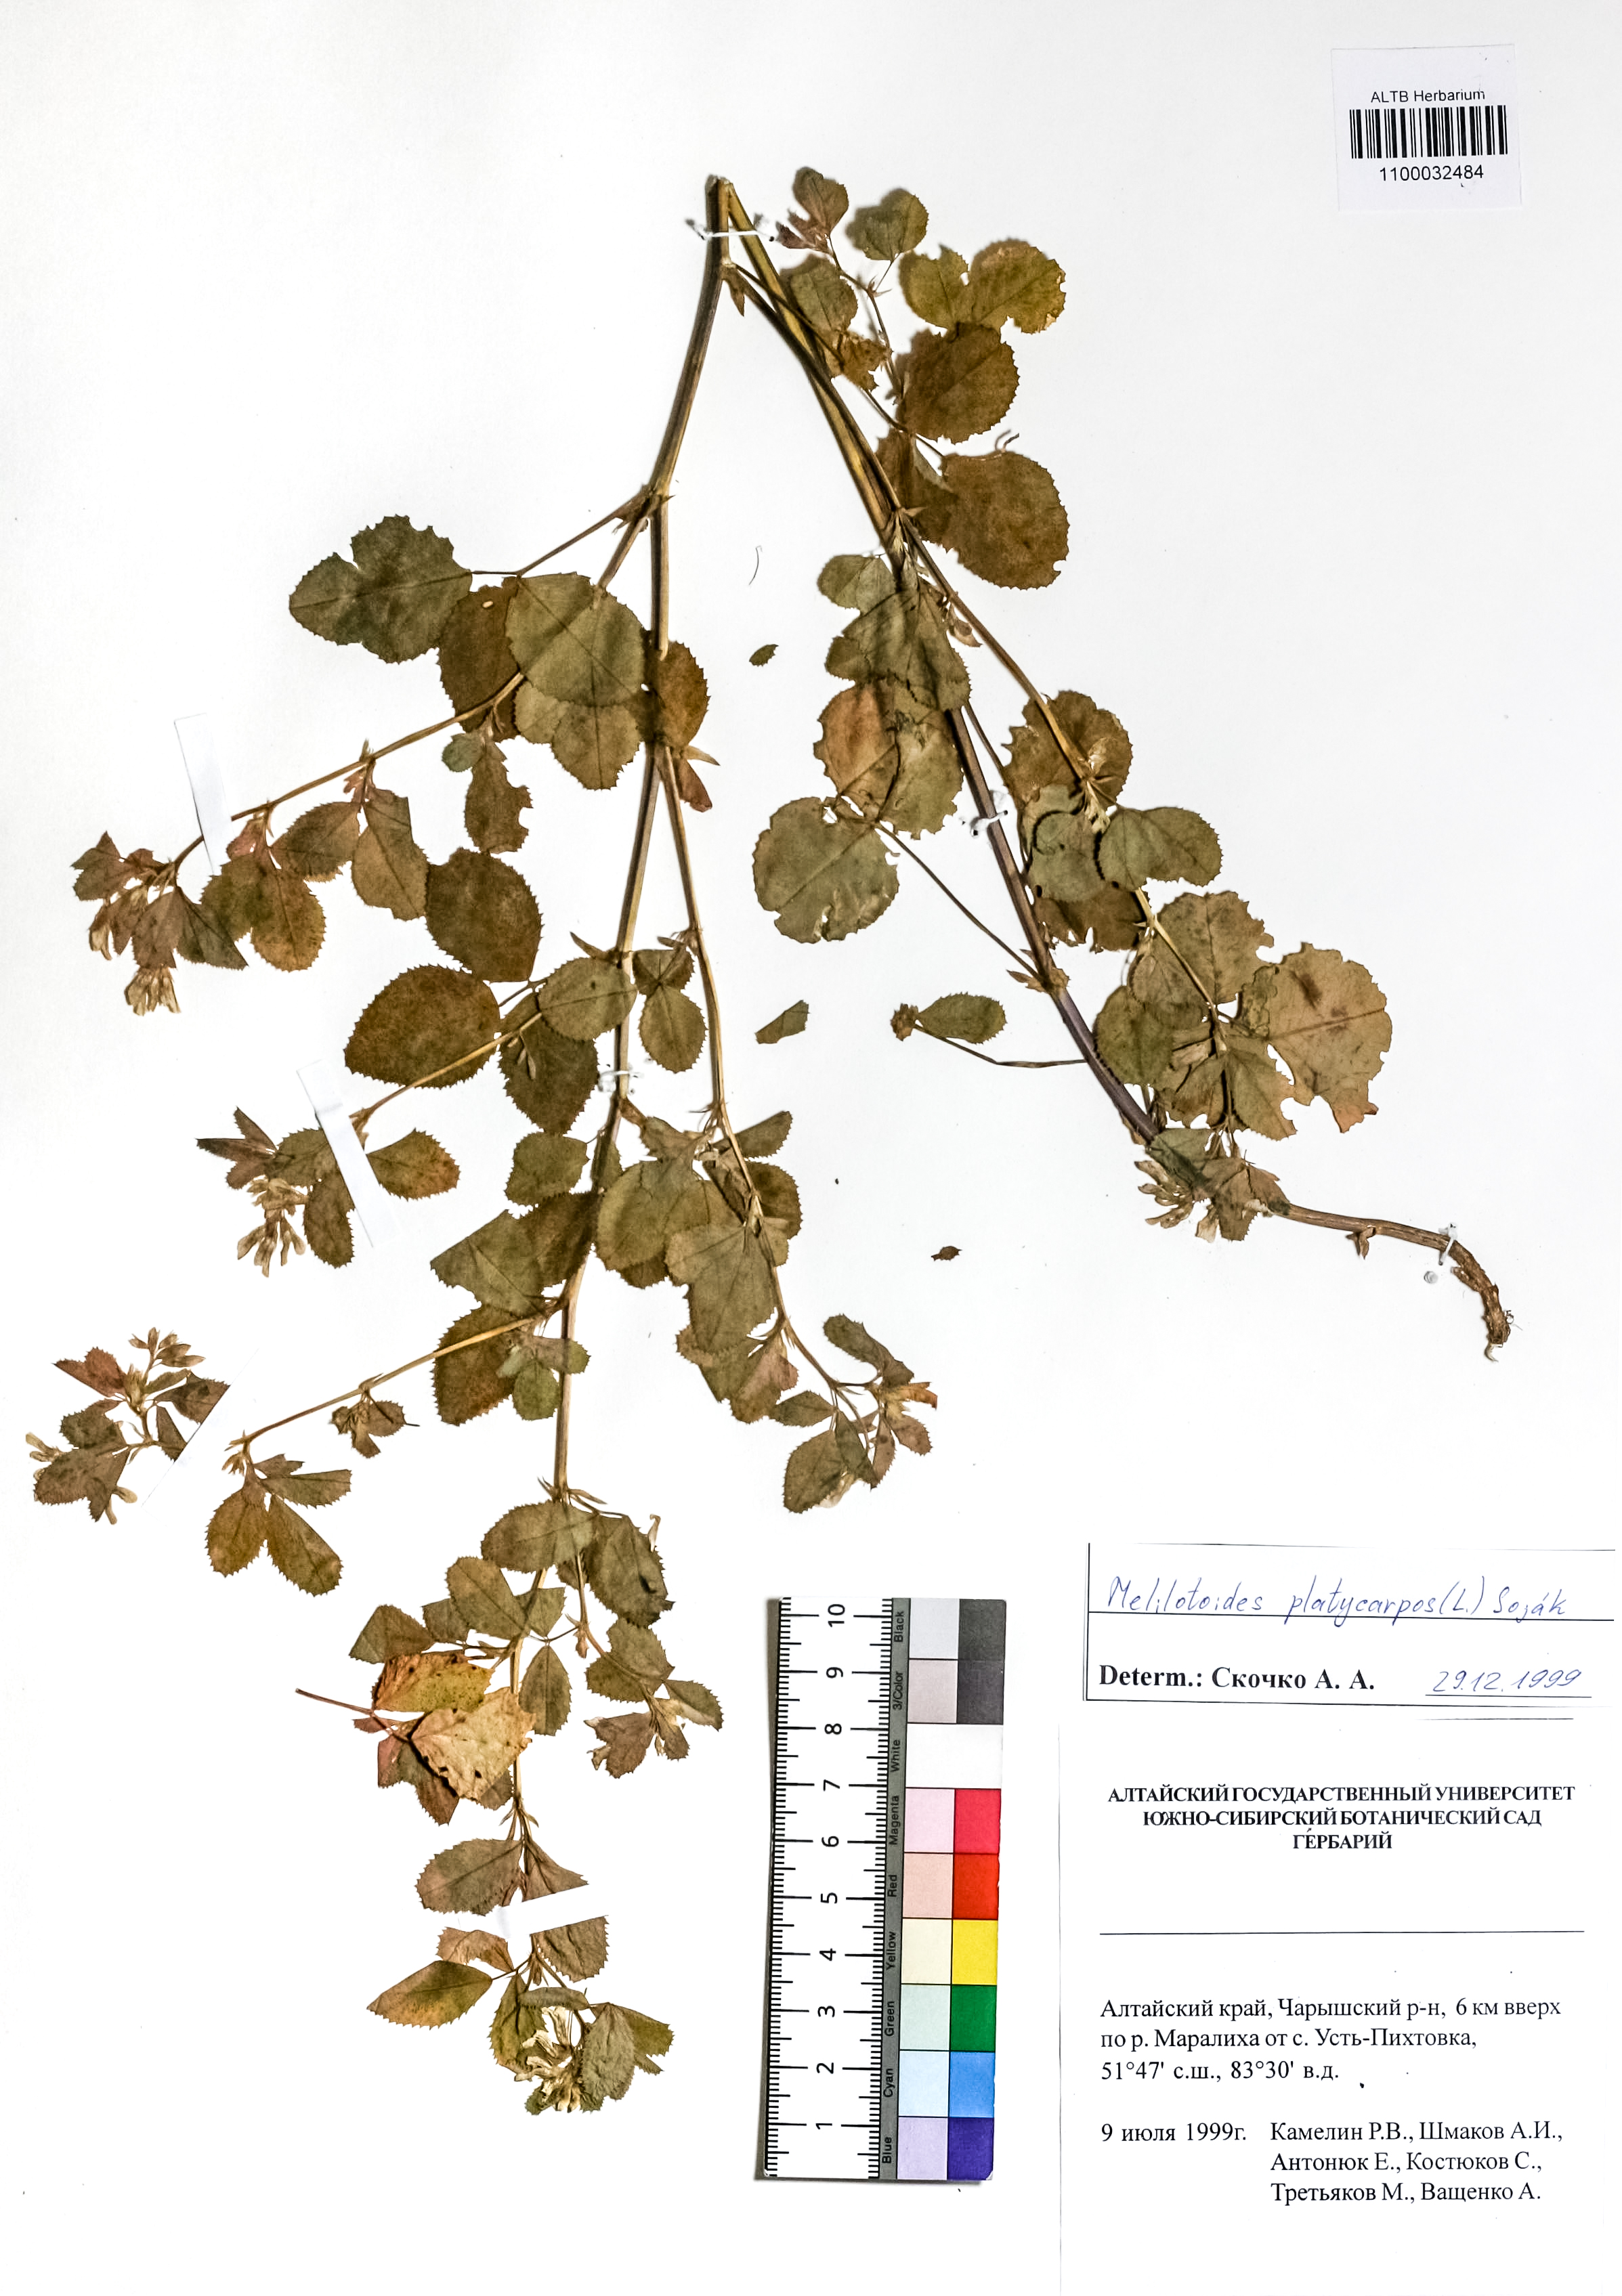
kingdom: Plantae
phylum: Tracheophyta
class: Magnoliopsida
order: Fabales
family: Fabaceae
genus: Medicago
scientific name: Medicago platycarpos
